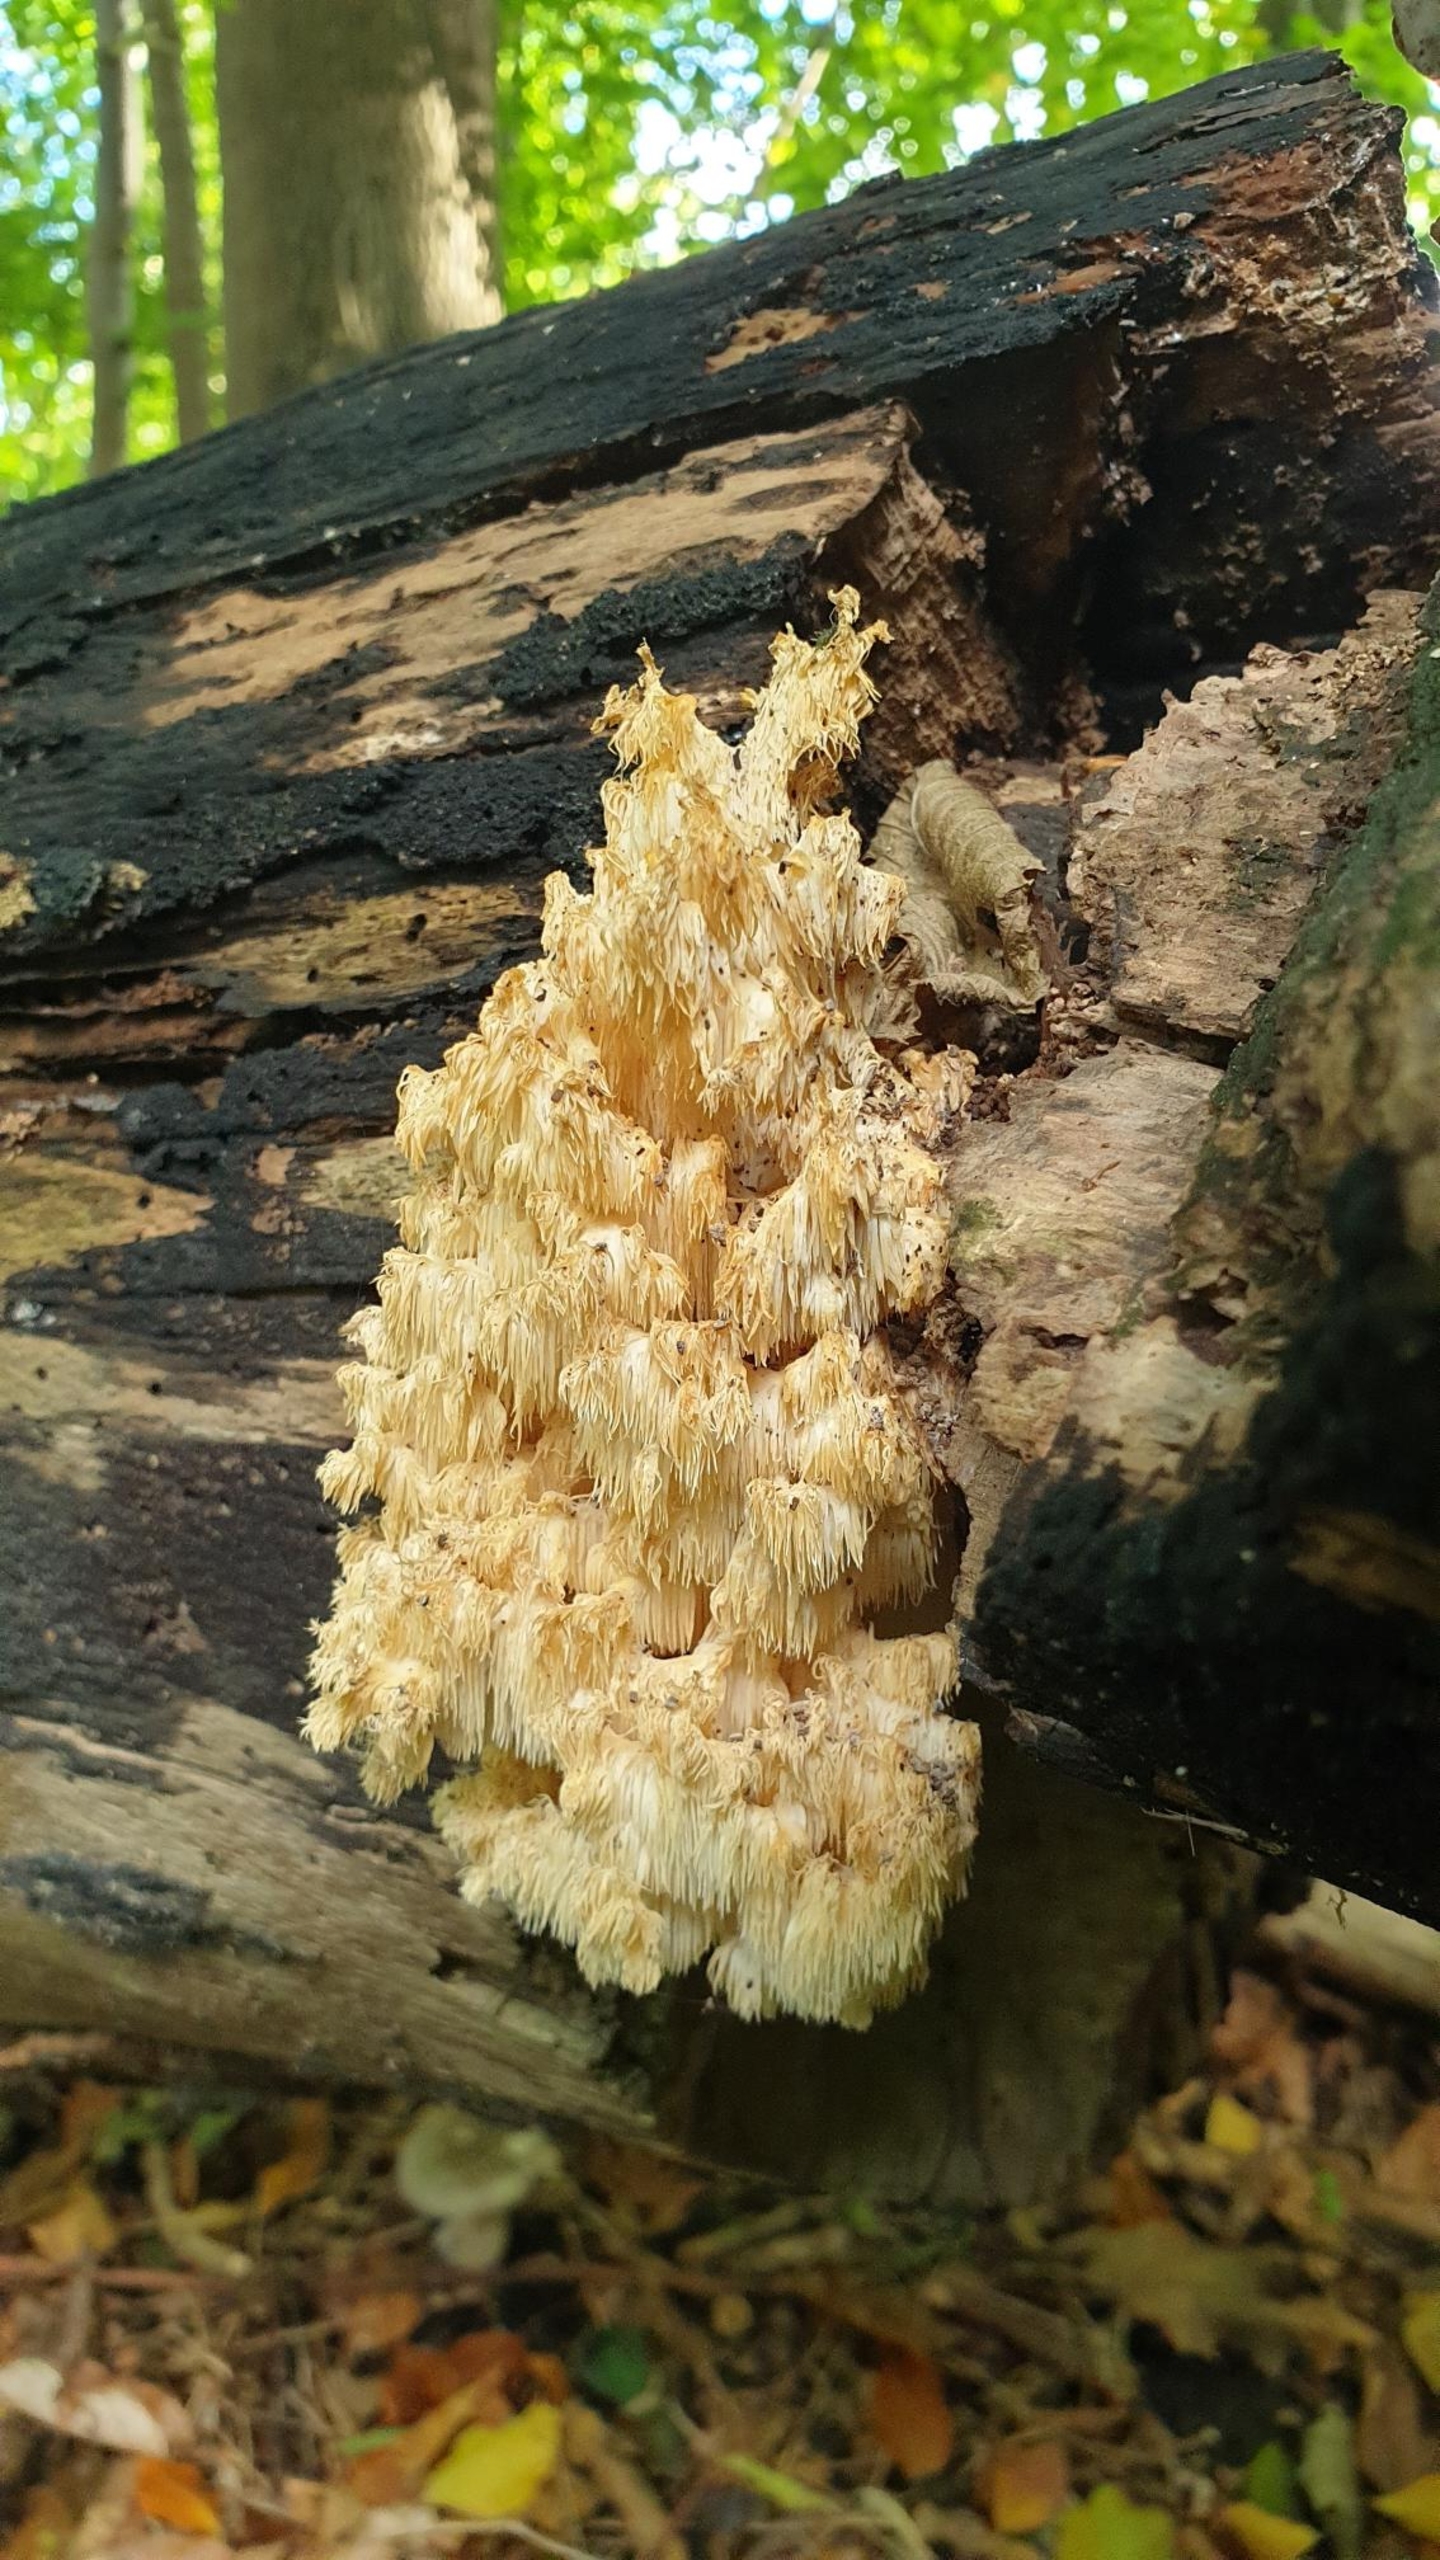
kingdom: Fungi
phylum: Basidiomycota
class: Agaricomycetes
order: Russulales
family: Hericiaceae
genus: Hericium
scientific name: Hericium coralloides
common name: Koralpigsvamp
